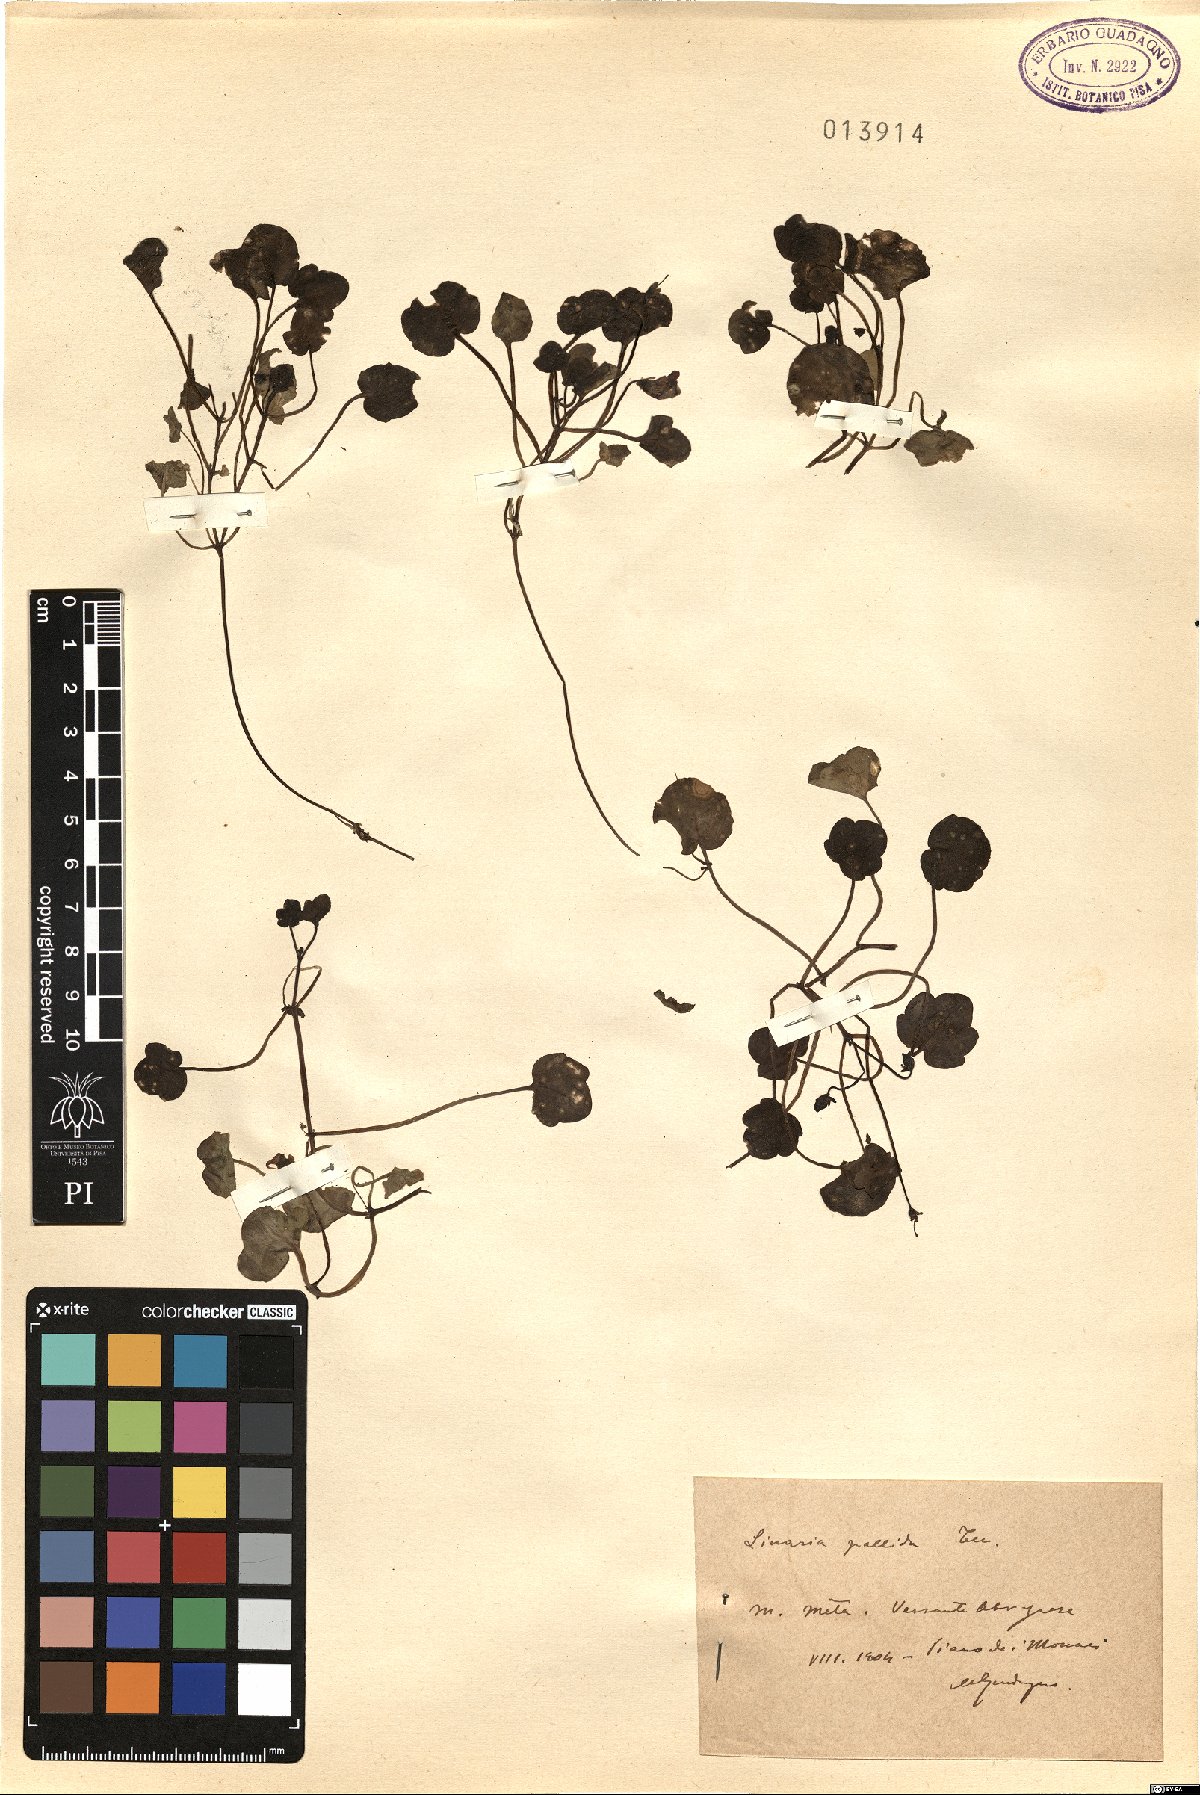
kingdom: Plantae
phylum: Tracheophyta
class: Magnoliopsida
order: Lamiales
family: Plantaginaceae
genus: Cymbalaria
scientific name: Cymbalaria pallida
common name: Italian toadflax
